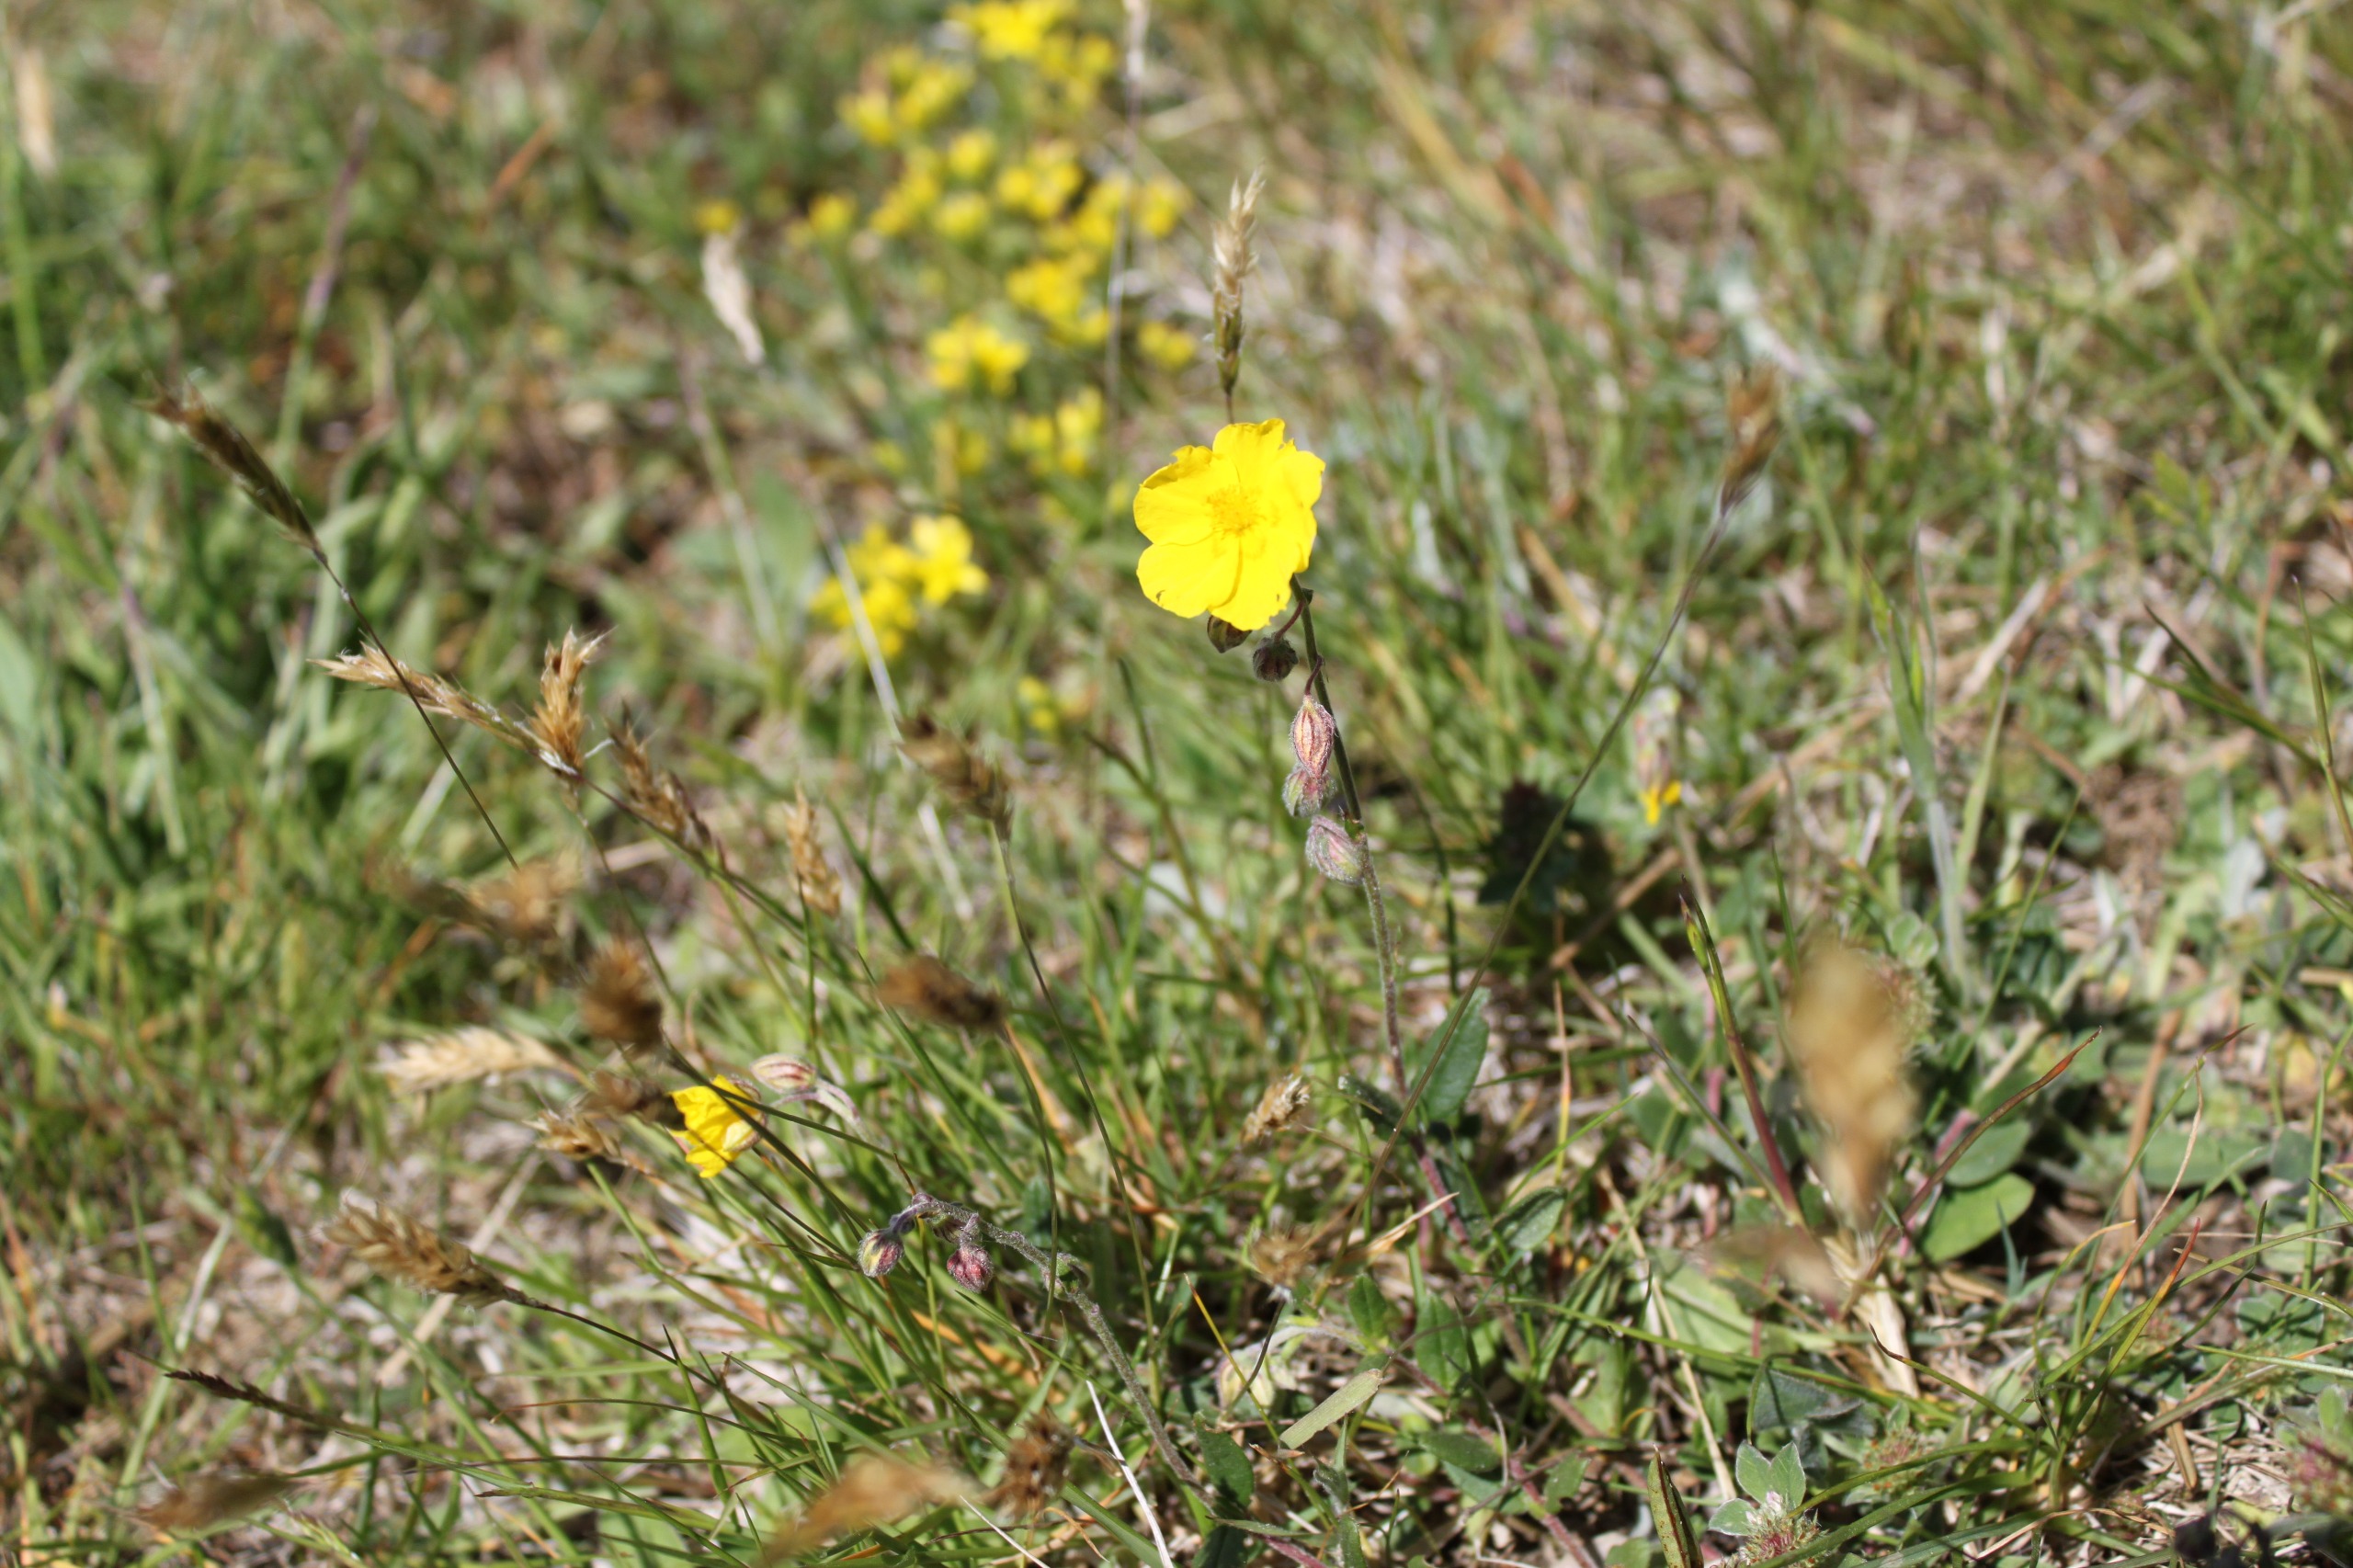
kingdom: Plantae
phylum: Tracheophyta
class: Magnoliopsida
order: Malvales
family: Cistaceae
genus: Helianthemum
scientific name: Helianthemum nummularium
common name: Soløje
